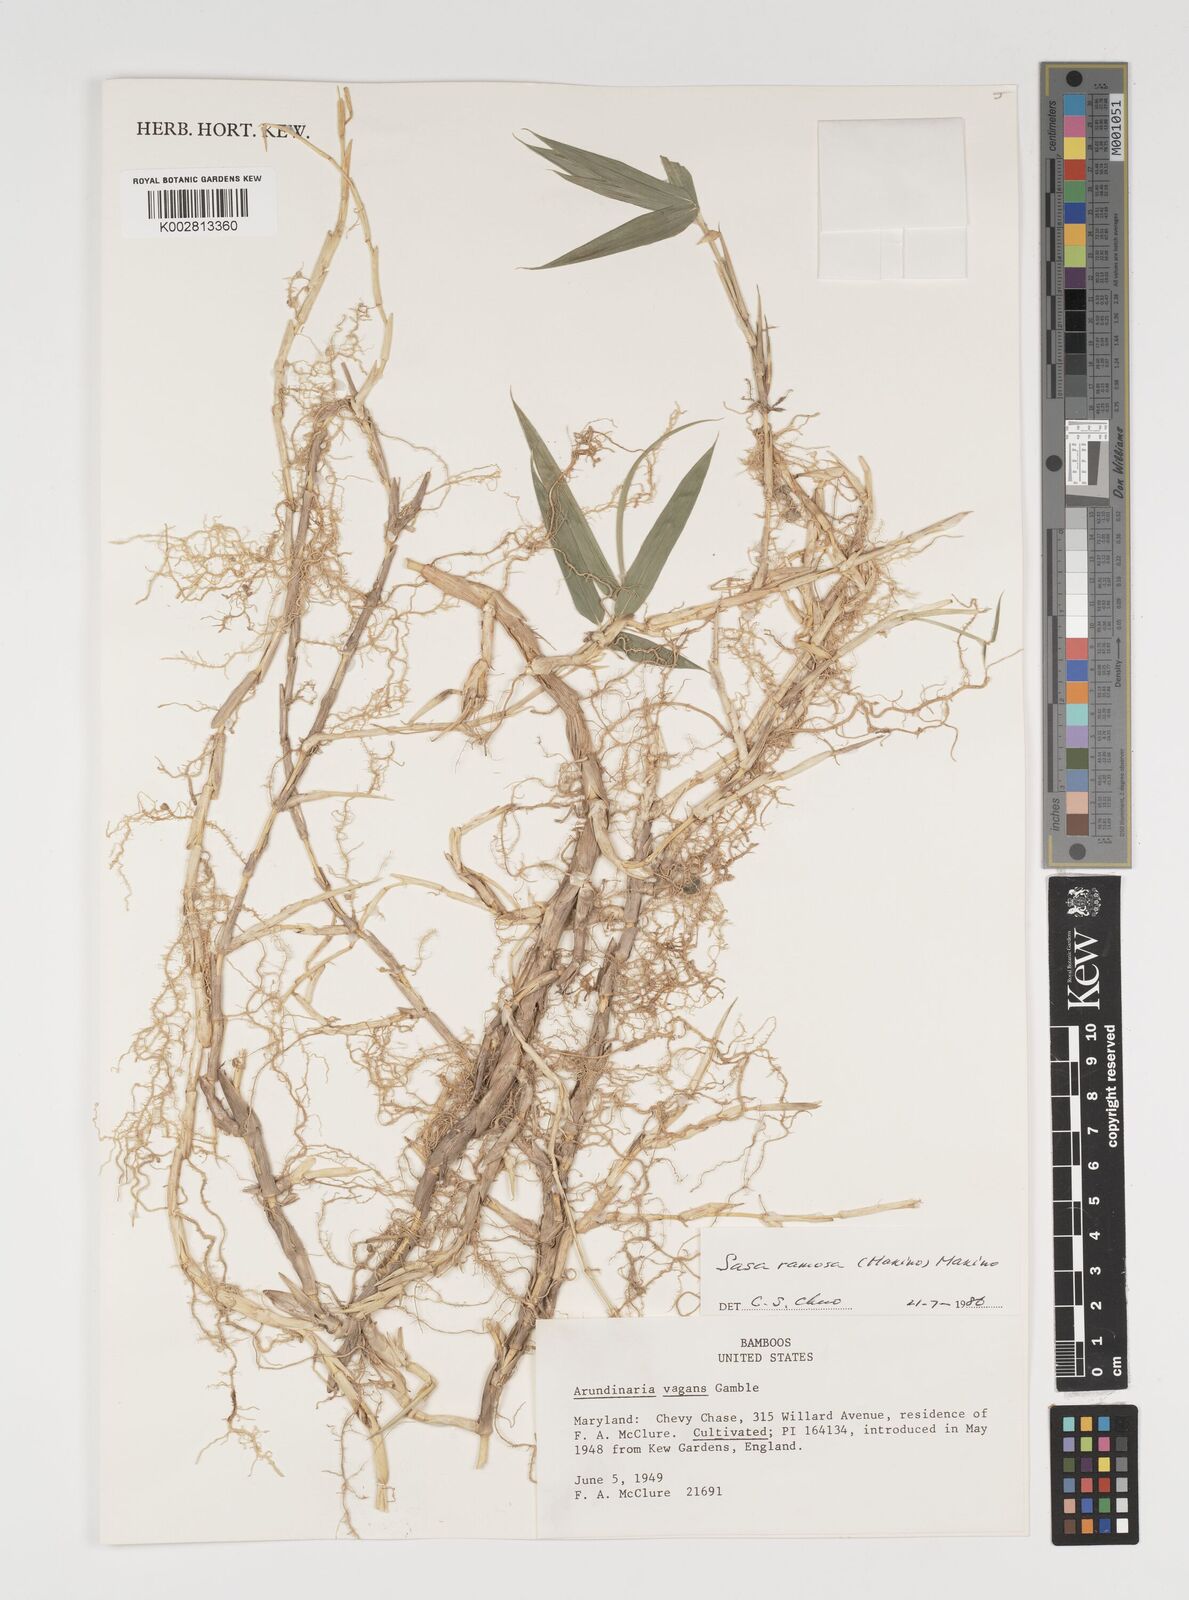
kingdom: Plantae
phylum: Tracheophyta
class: Liliopsida
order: Poales
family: Poaceae
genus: Sasaella
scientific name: Sasaella ramosa
